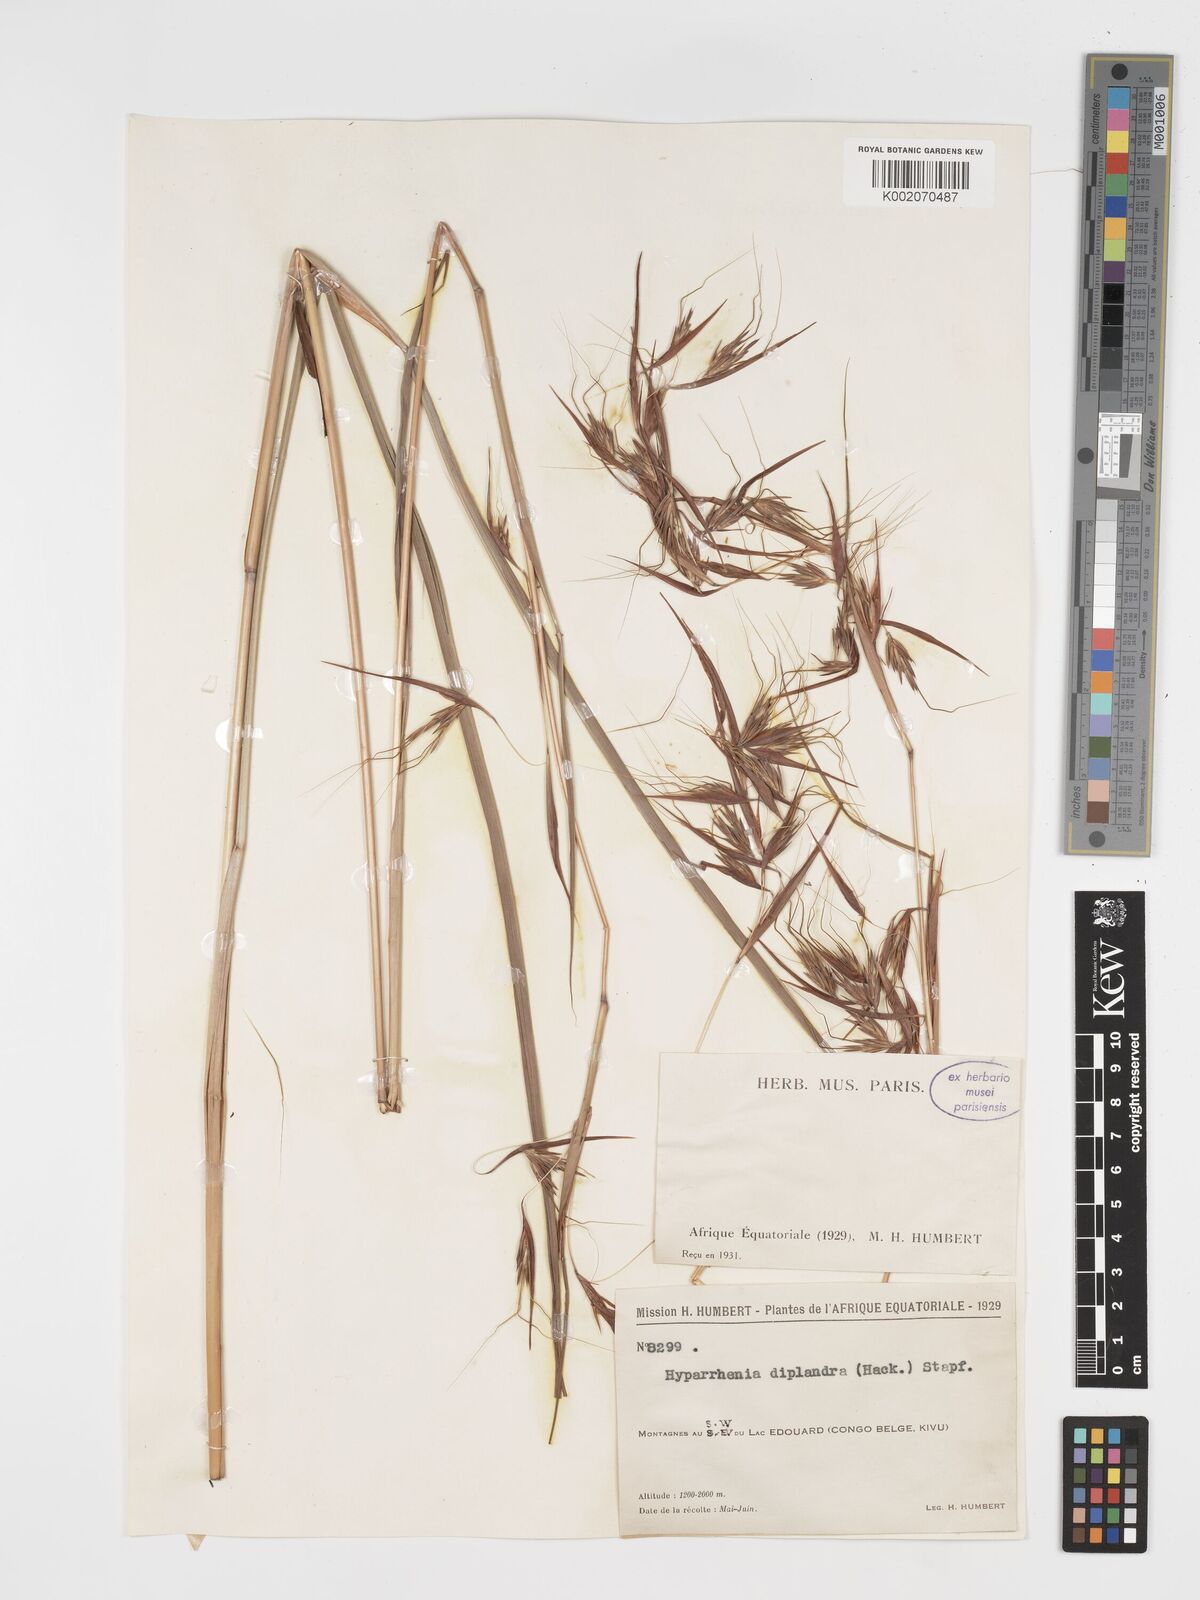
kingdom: Plantae
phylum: Tracheophyta
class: Liliopsida
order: Poales
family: Poaceae
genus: Hyparrhenia
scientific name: Hyparrhenia diplandra
